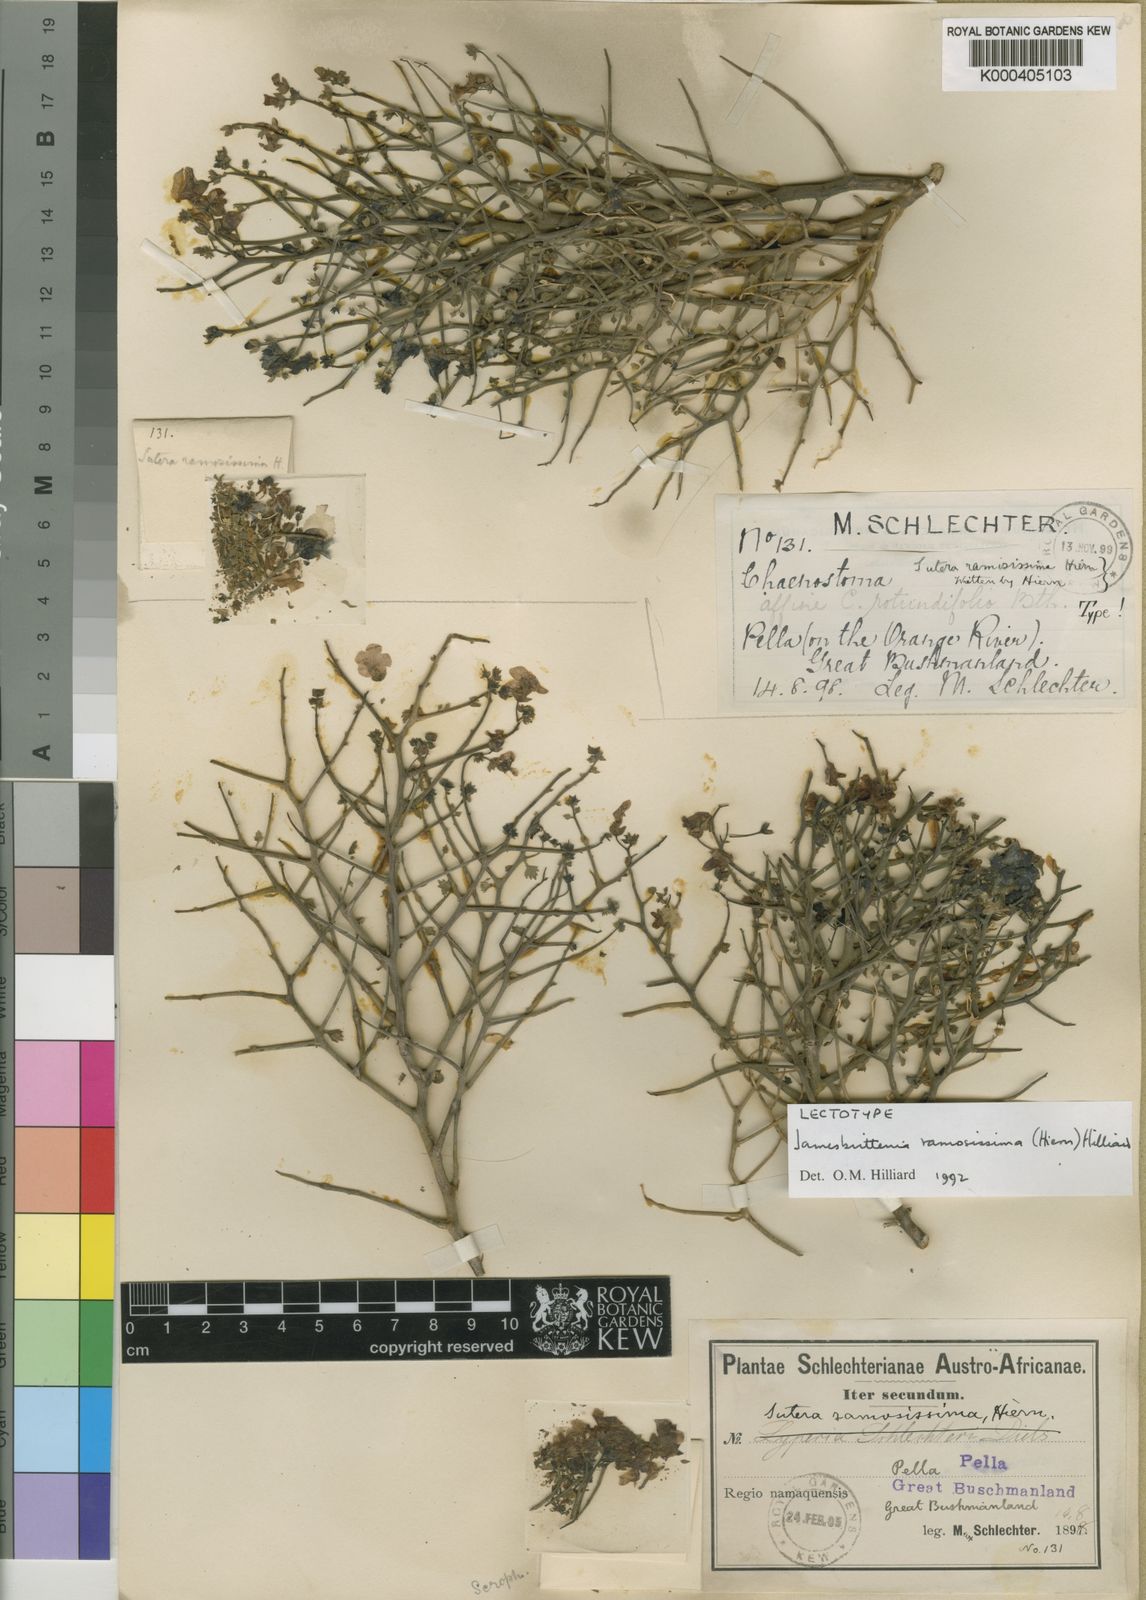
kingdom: Plantae
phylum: Tracheophyta
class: Magnoliopsida
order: Lamiales
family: Scrophulariaceae
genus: Jamesbrittenia
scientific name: Jamesbrittenia ramosissima
